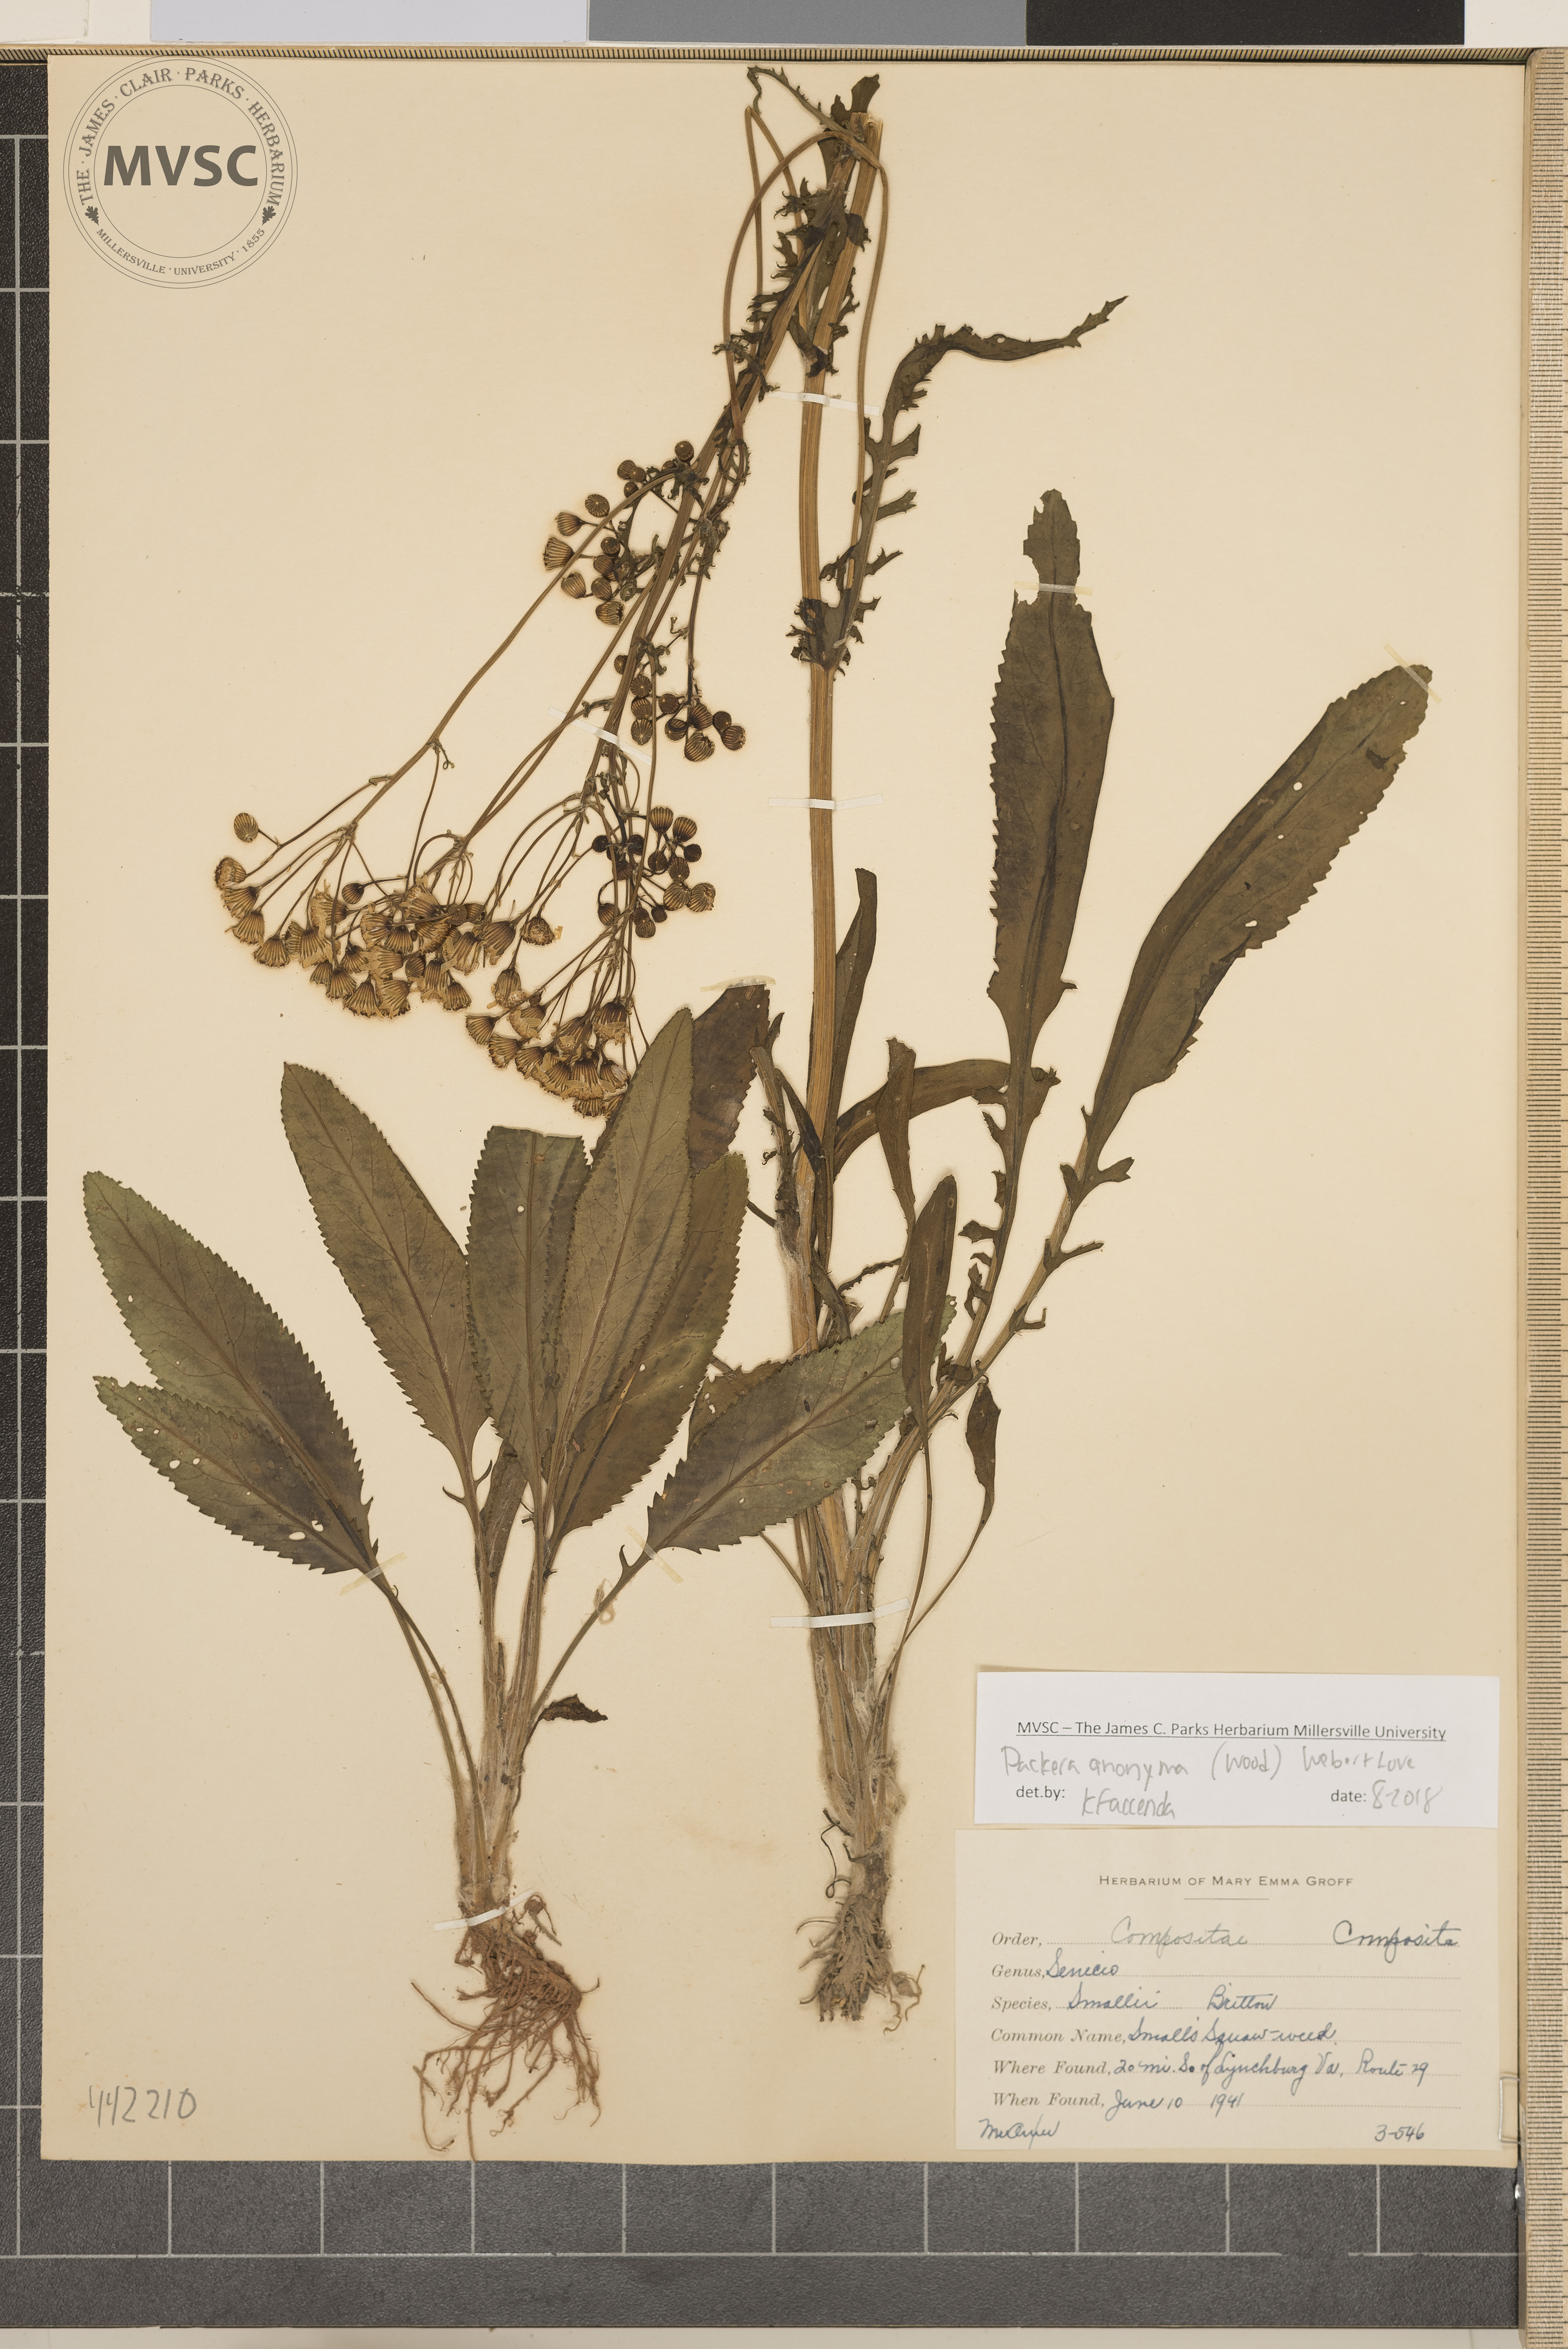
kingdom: Plantae
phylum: Tracheophyta
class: Magnoliopsida
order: Asterales
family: Asteraceae
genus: Packera
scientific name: Packera anonyma
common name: Small ragwort
